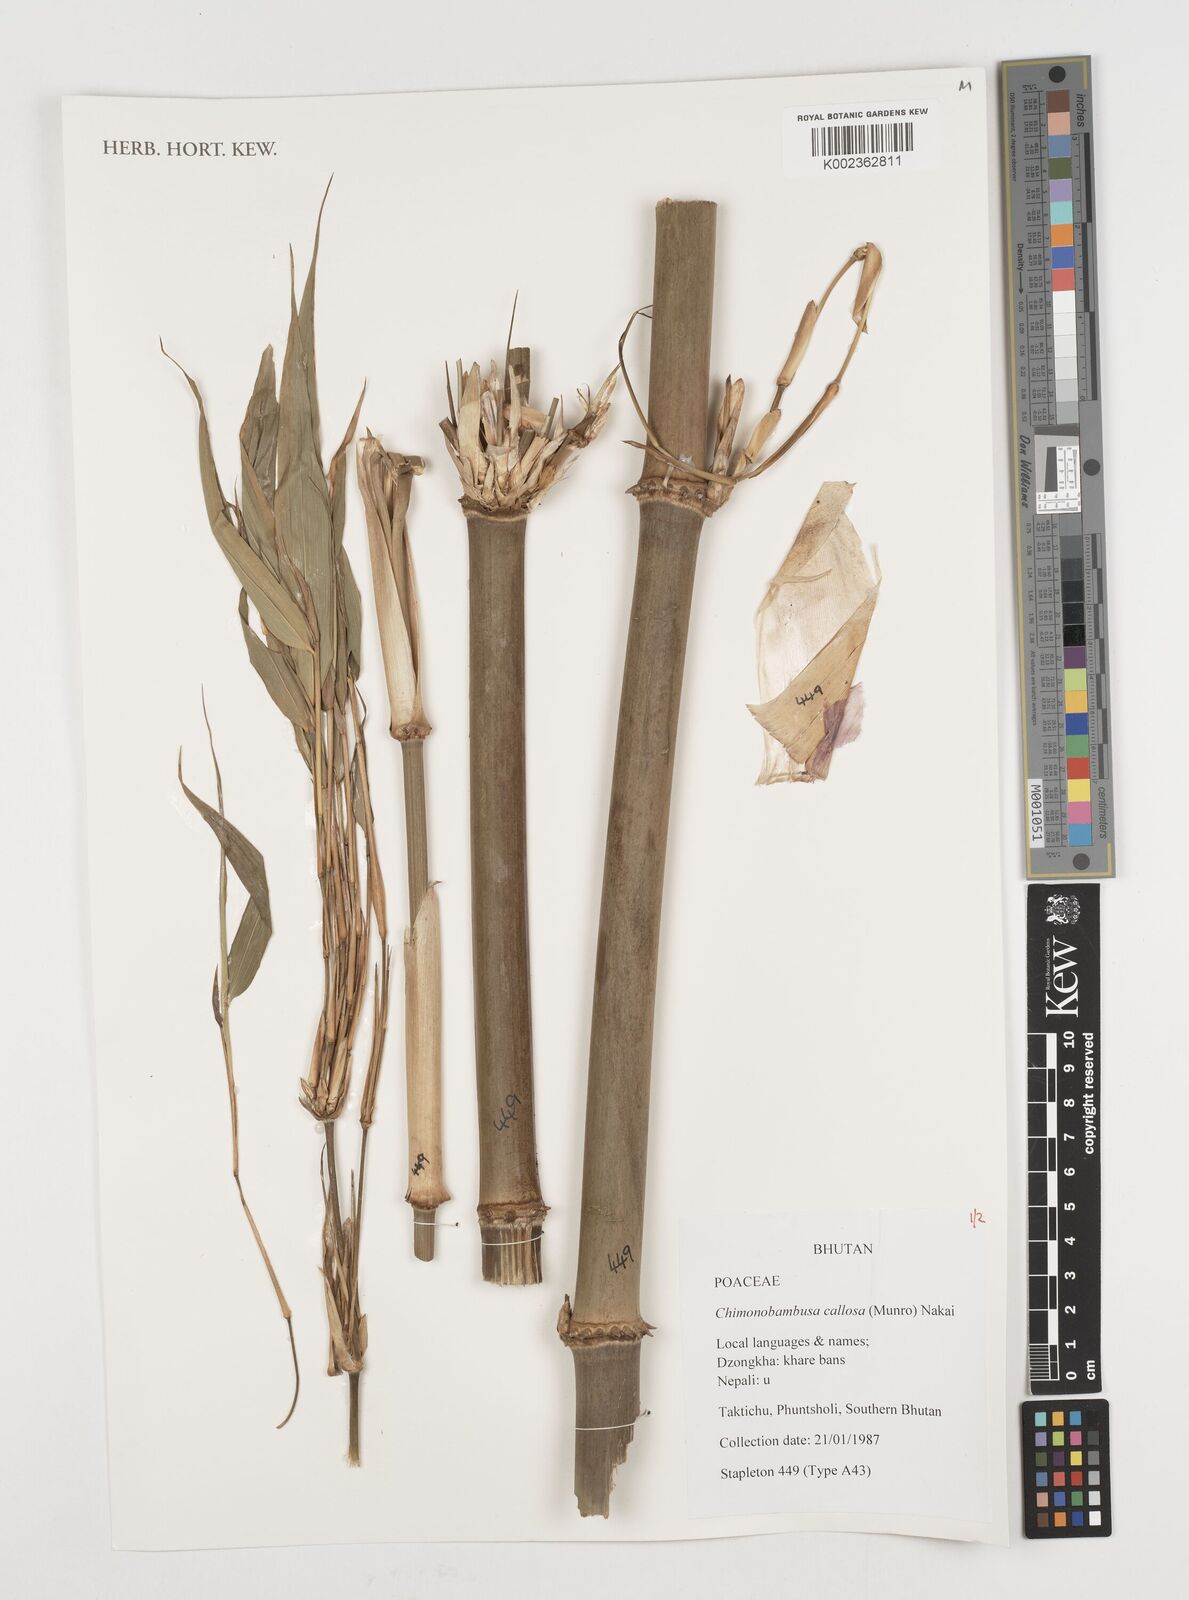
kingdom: Plantae
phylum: Tracheophyta
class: Liliopsida
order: Poales
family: Poaceae
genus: Chimonobambusa
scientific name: Chimonobambusa callosa
